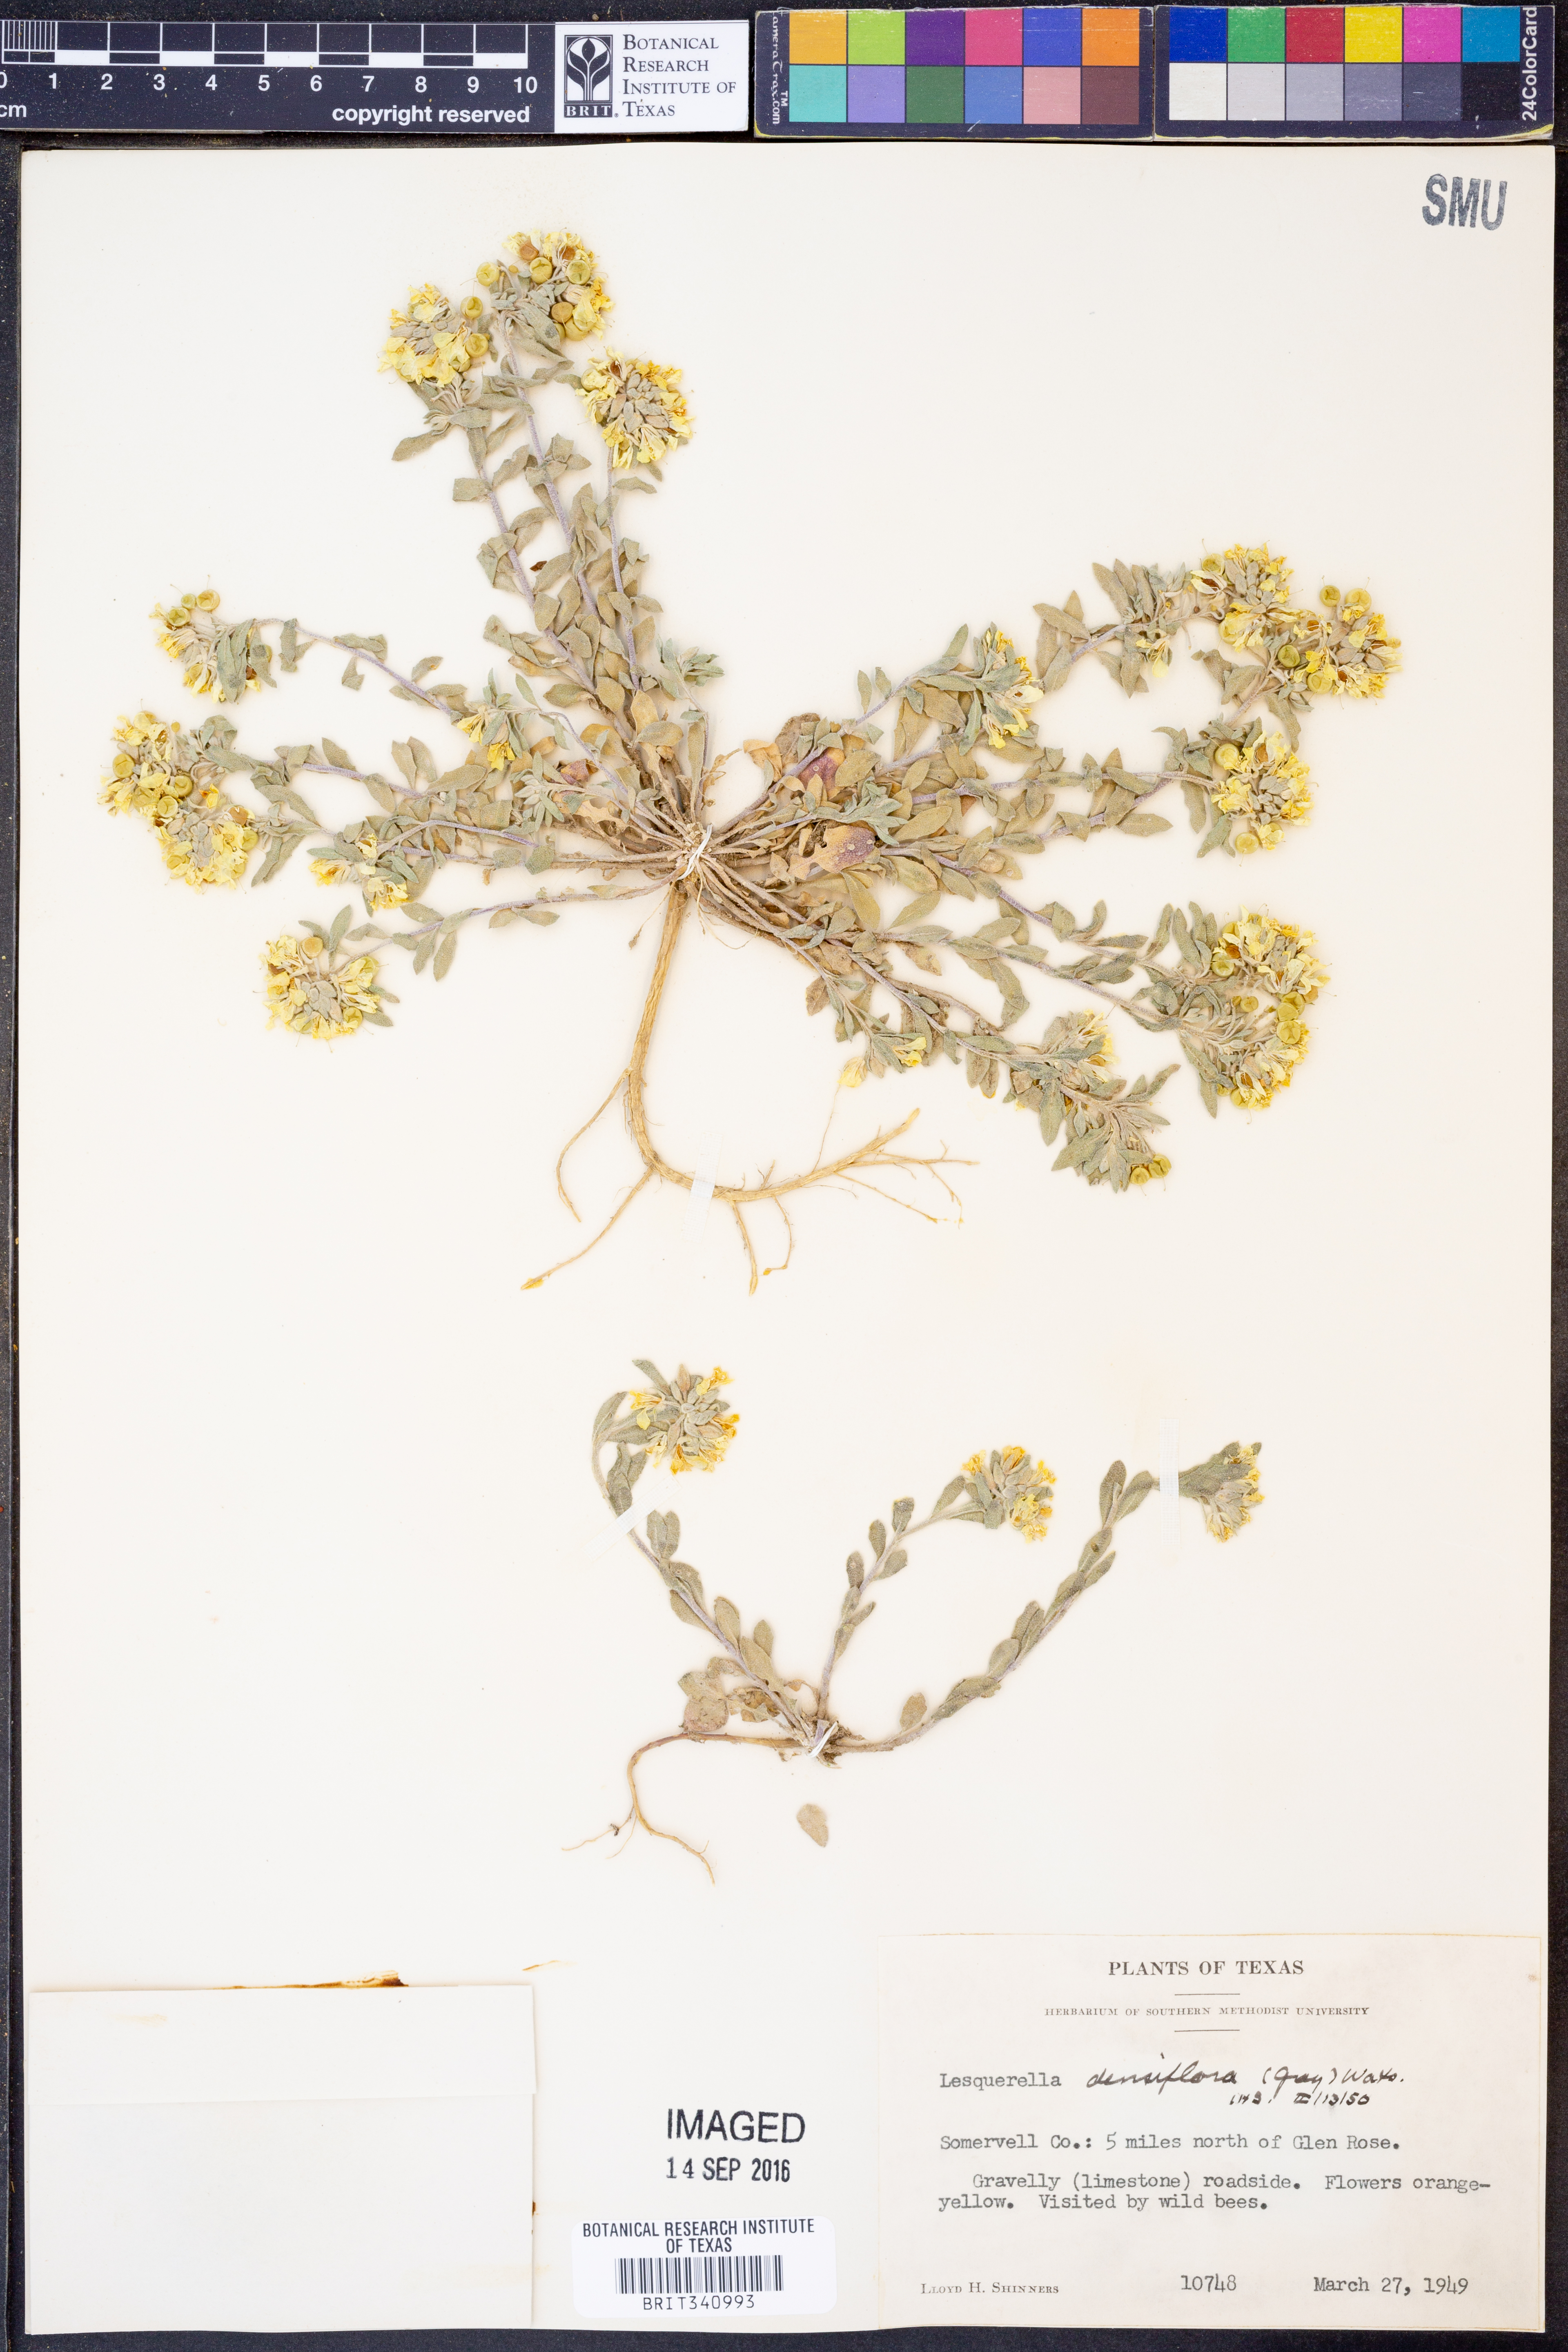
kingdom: Plantae
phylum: Tracheophyta
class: Magnoliopsida
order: Brassicales
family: Brassicaceae
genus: Physaria
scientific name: Physaria densiflora
